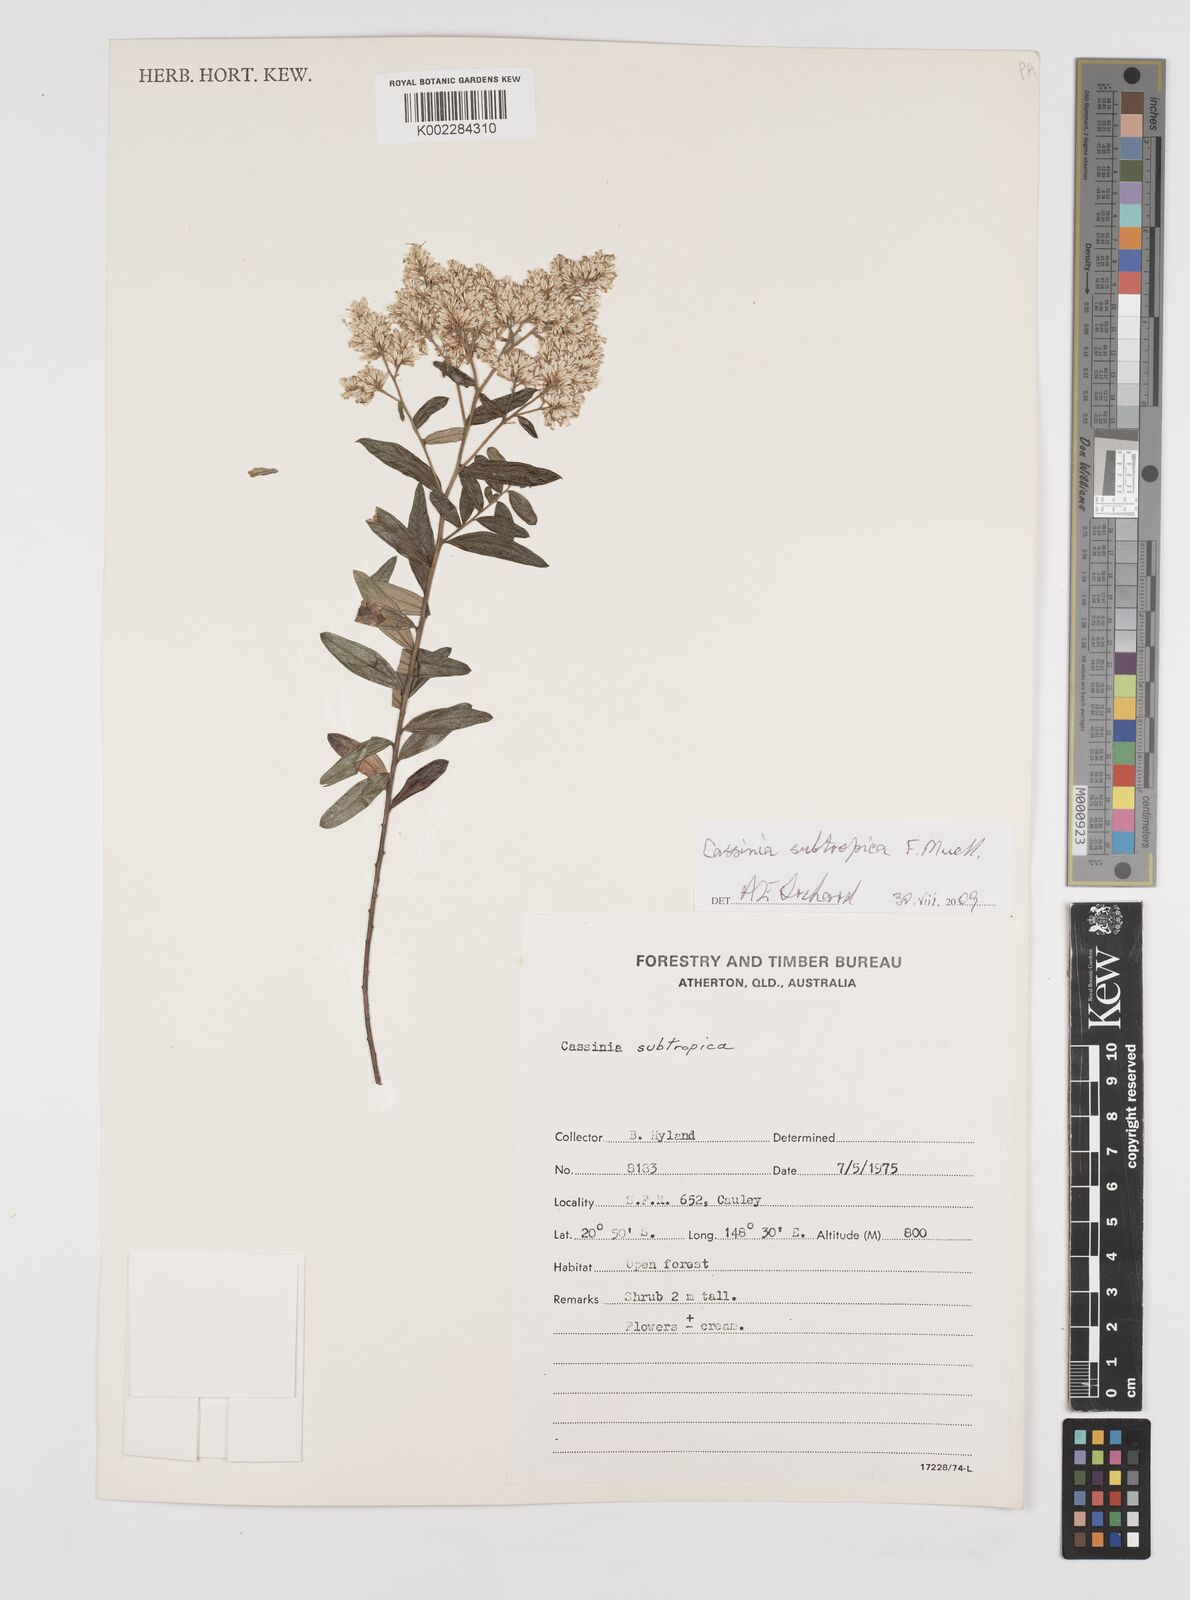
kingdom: Plantae
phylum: Tracheophyta
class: Magnoliopsida
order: Asterales
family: Asteraceae
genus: Cassinia
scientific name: Cassinia subtropica
